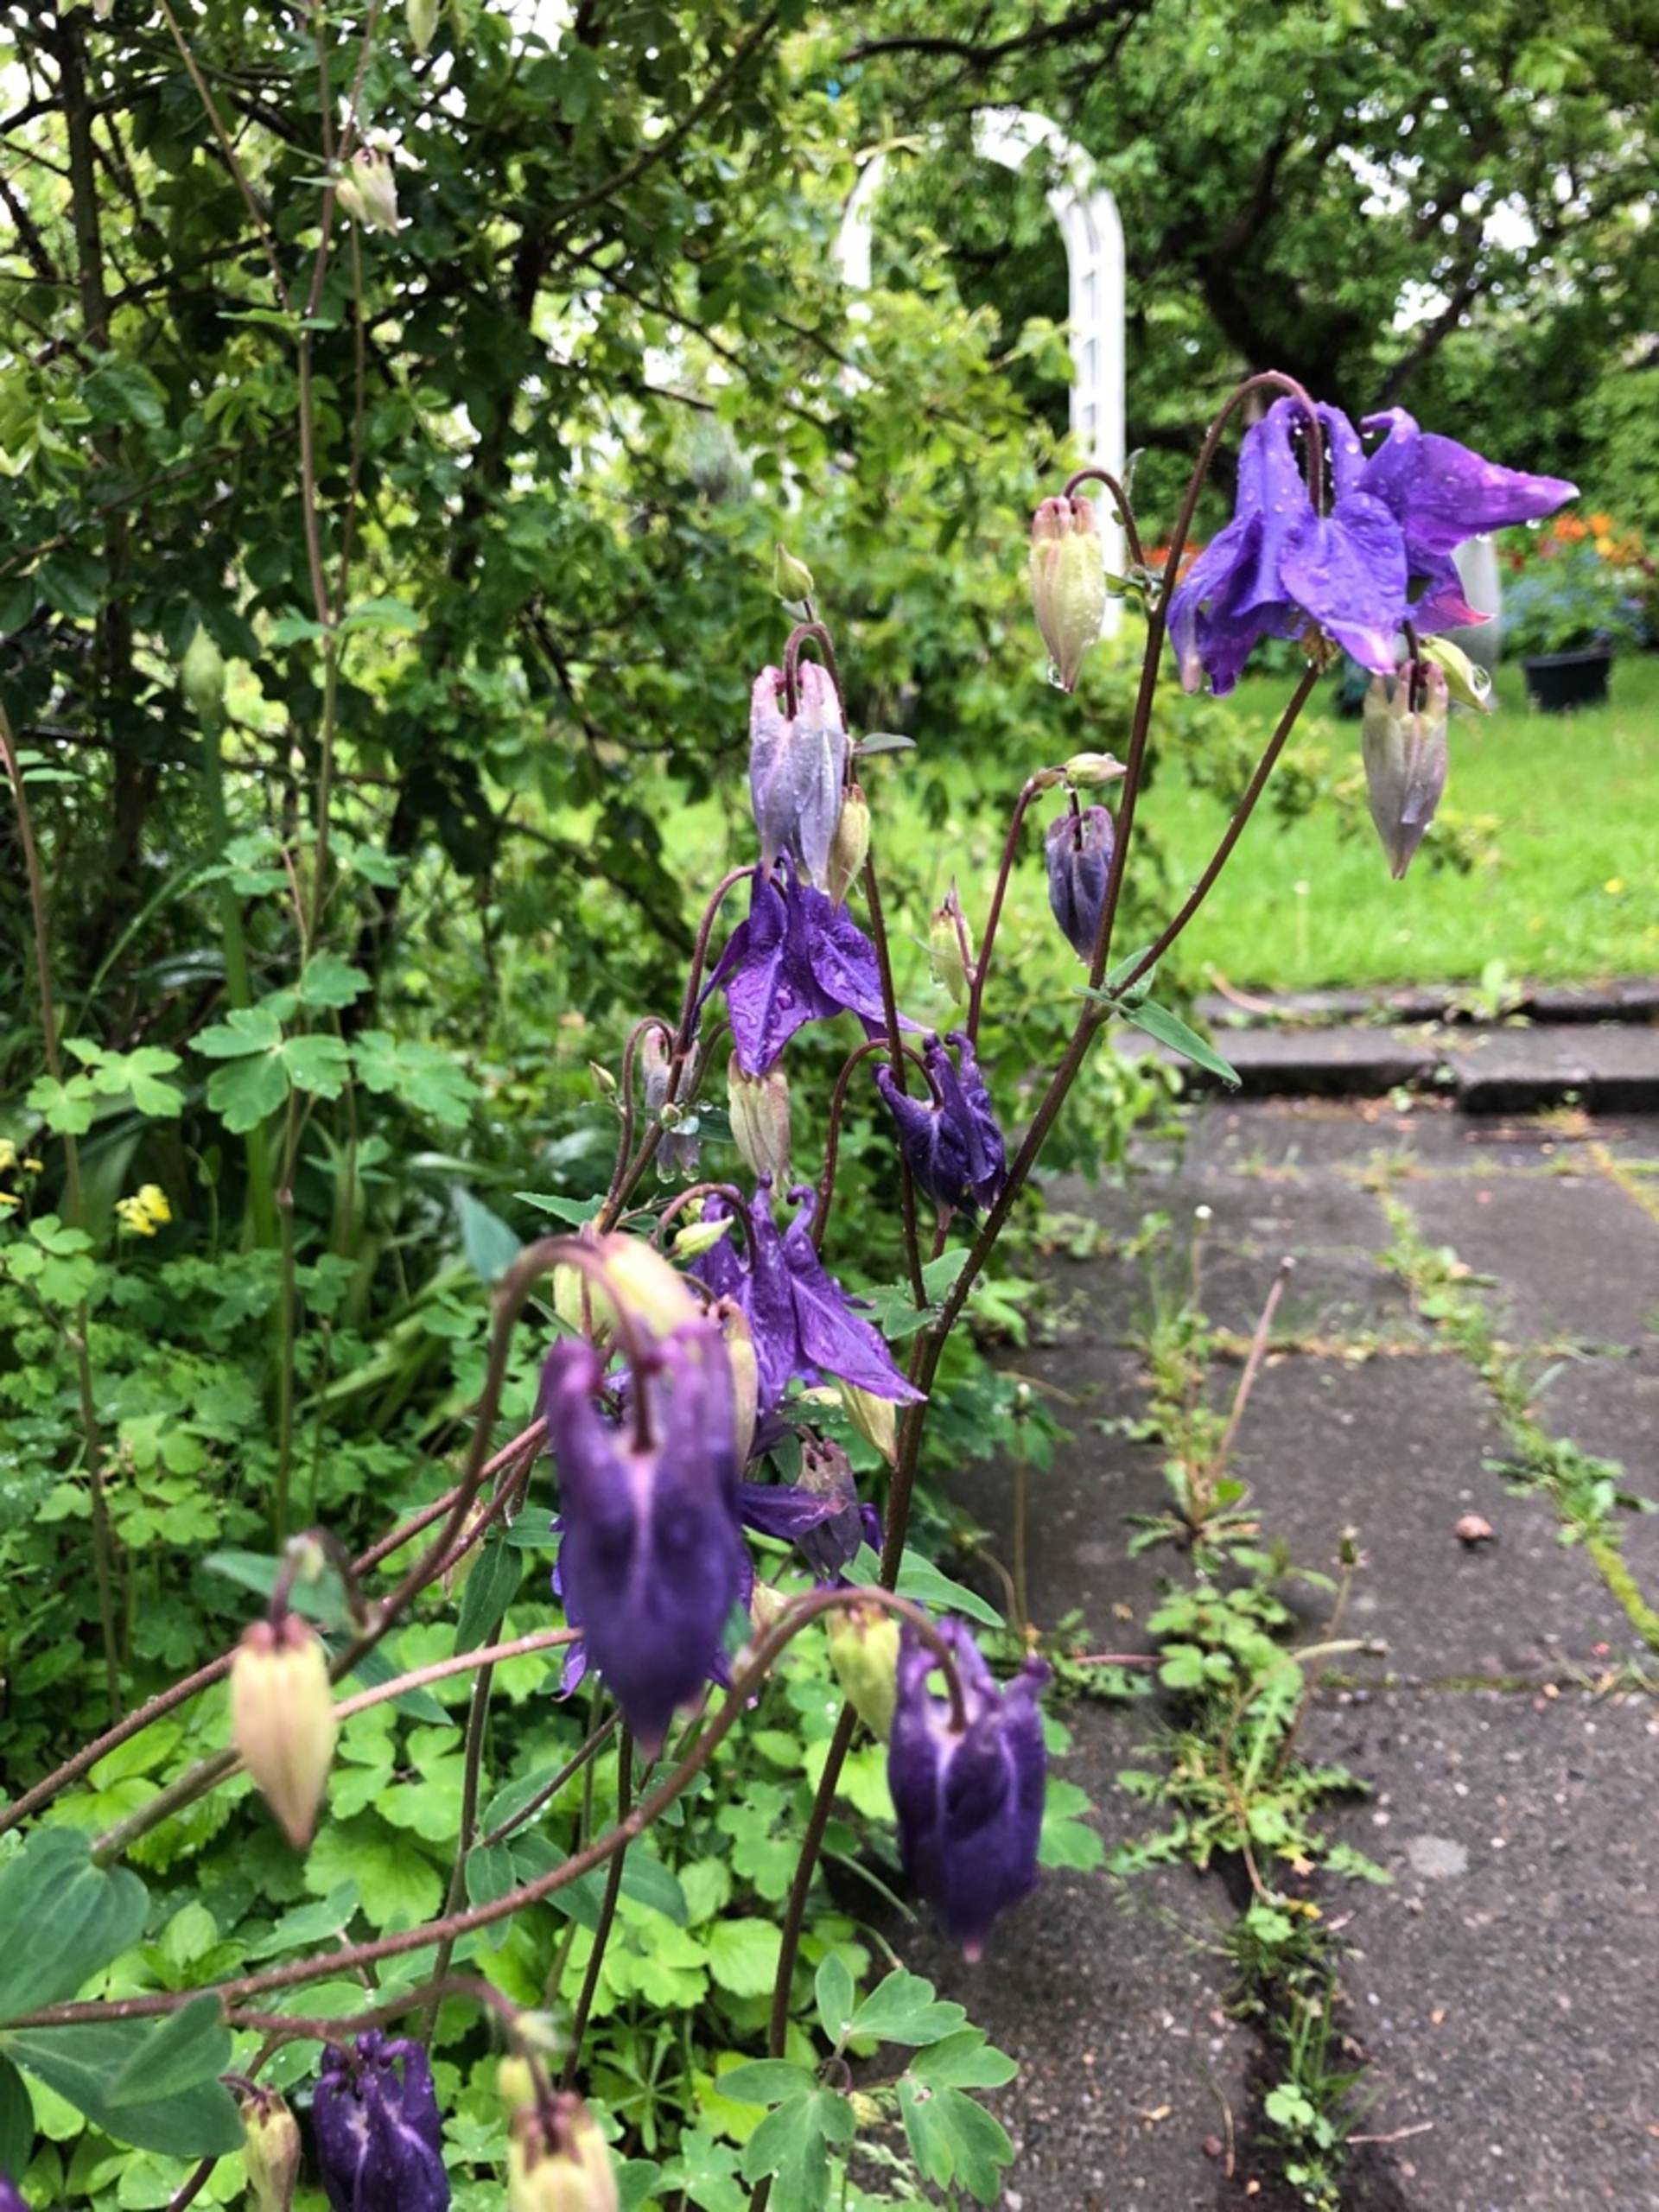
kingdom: Plantae
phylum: Tracheophyta
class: Magnoliopsida
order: Ranunculales
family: Ranunculaceae
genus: Aquilegia
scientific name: Aquilegia vulgaris
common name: Akeleje
